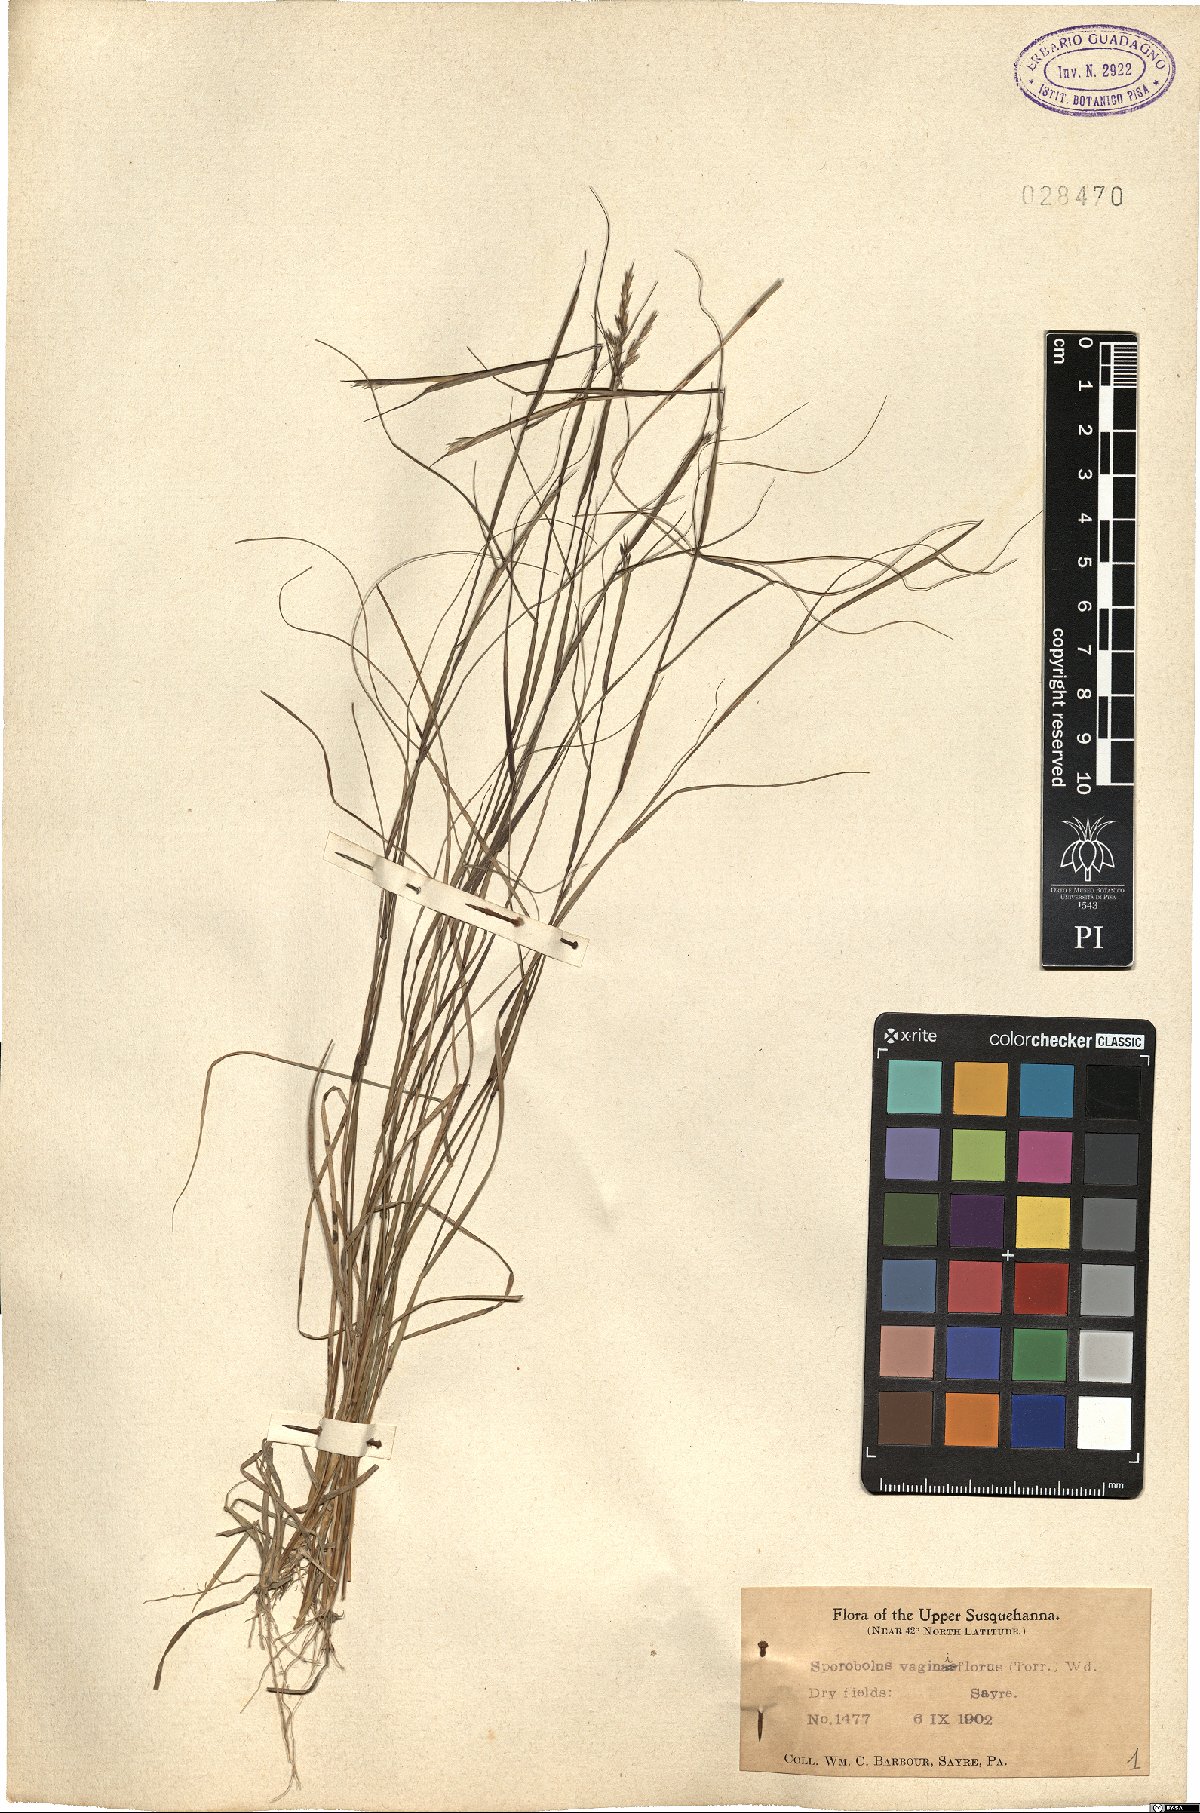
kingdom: Plantae
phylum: Tracheophyta
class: Liliopsida
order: Poales
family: Poaceae
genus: Sporobolus
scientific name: Sporobolus vaginiflorus
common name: Poverty dropseed
